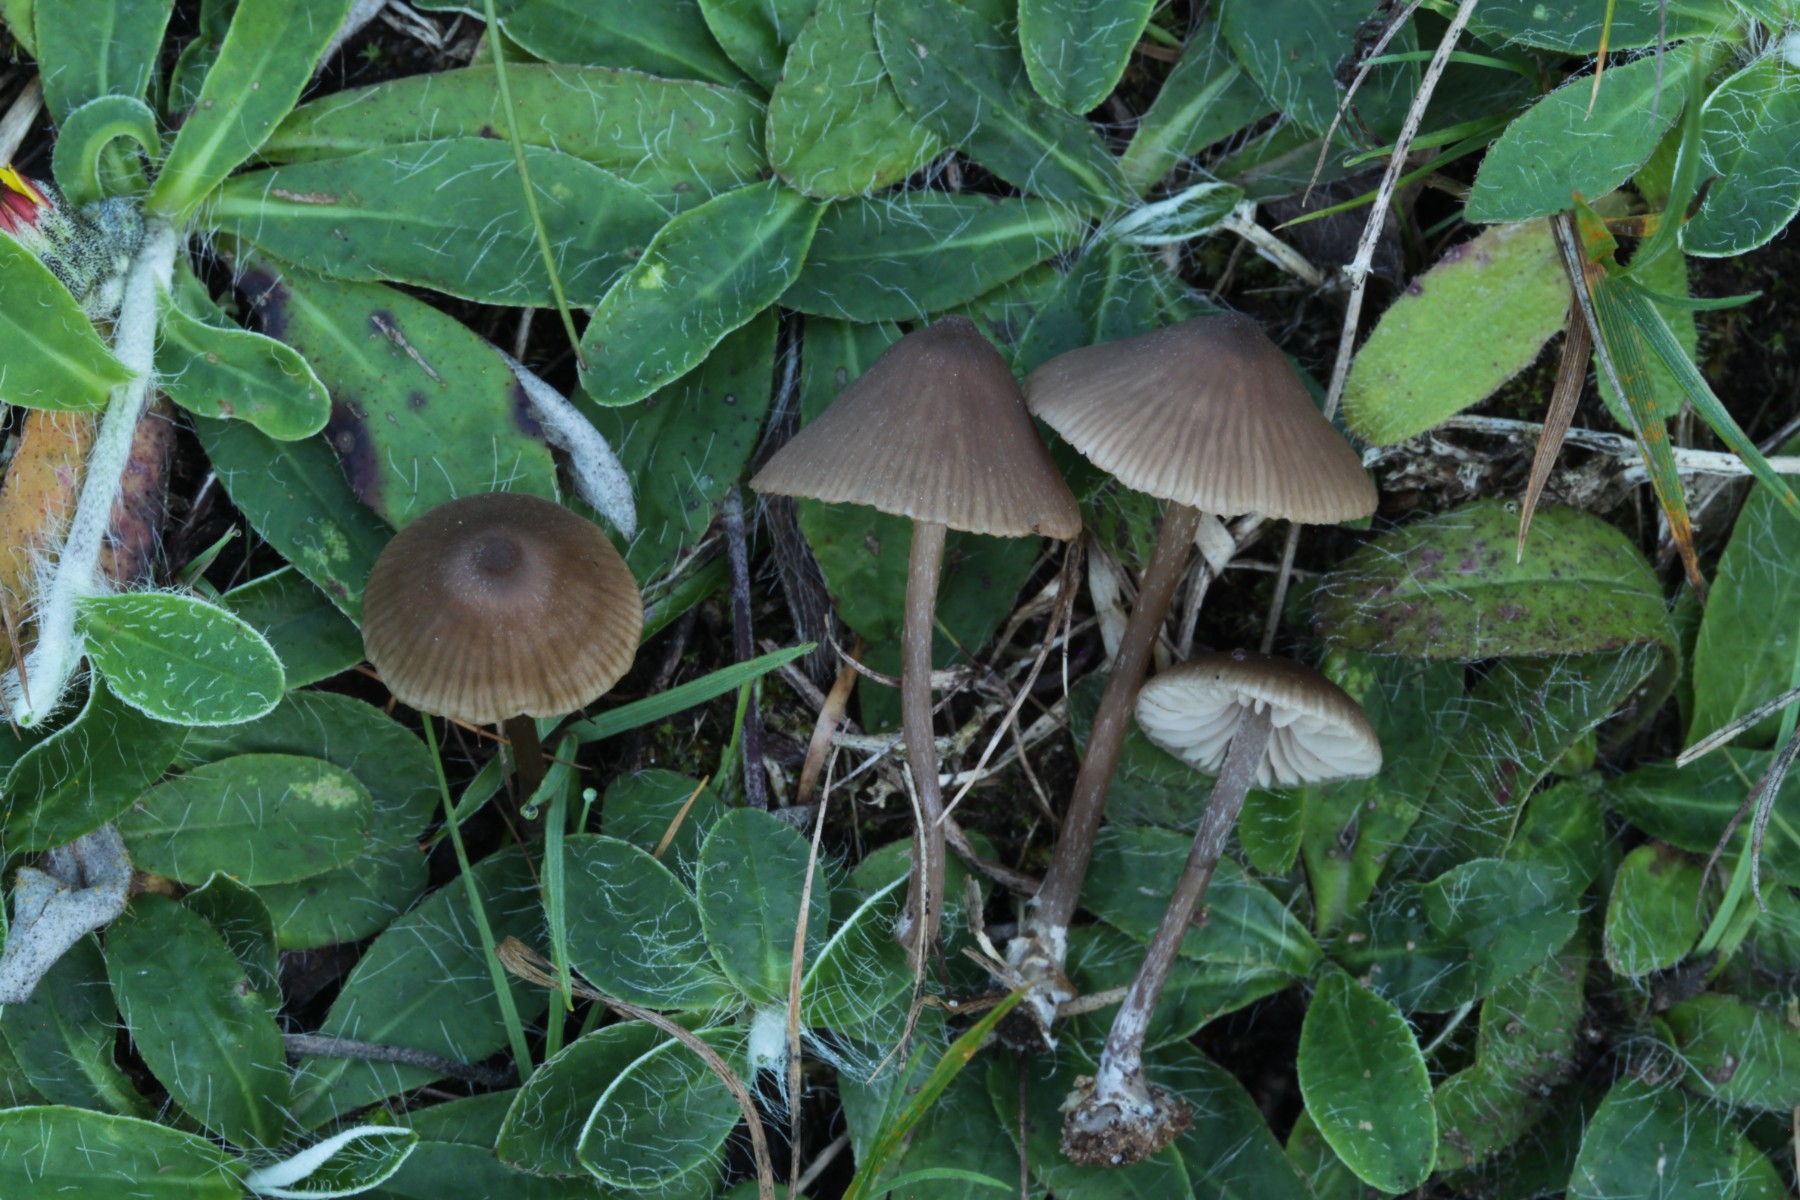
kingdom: Fungi
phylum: Basidiomycota
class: Agaricomycetes
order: Agaricales
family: Entolomataceae
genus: Entoloma
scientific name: Entoloma
